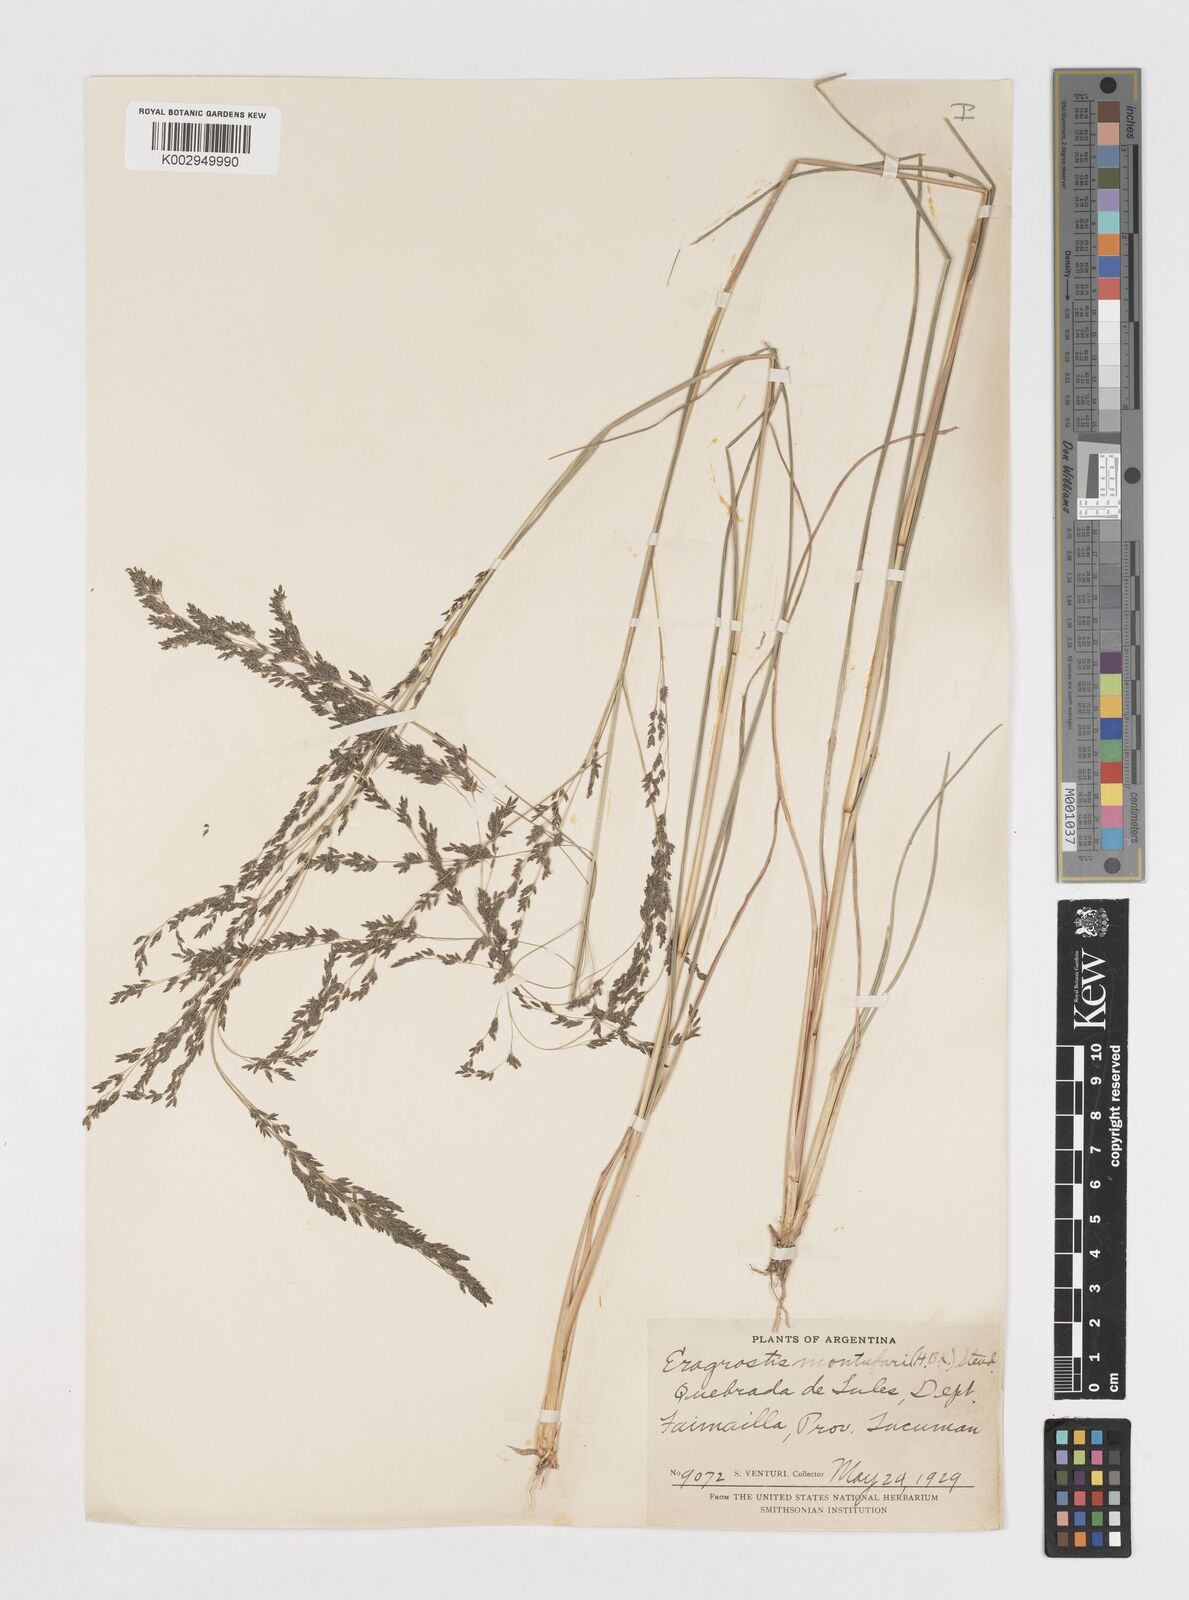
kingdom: Plantae
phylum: Tracheophyta
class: Liliopsida
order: Poales
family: Poaceae
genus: Eragrostis
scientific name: Eragrostis pastoensis
